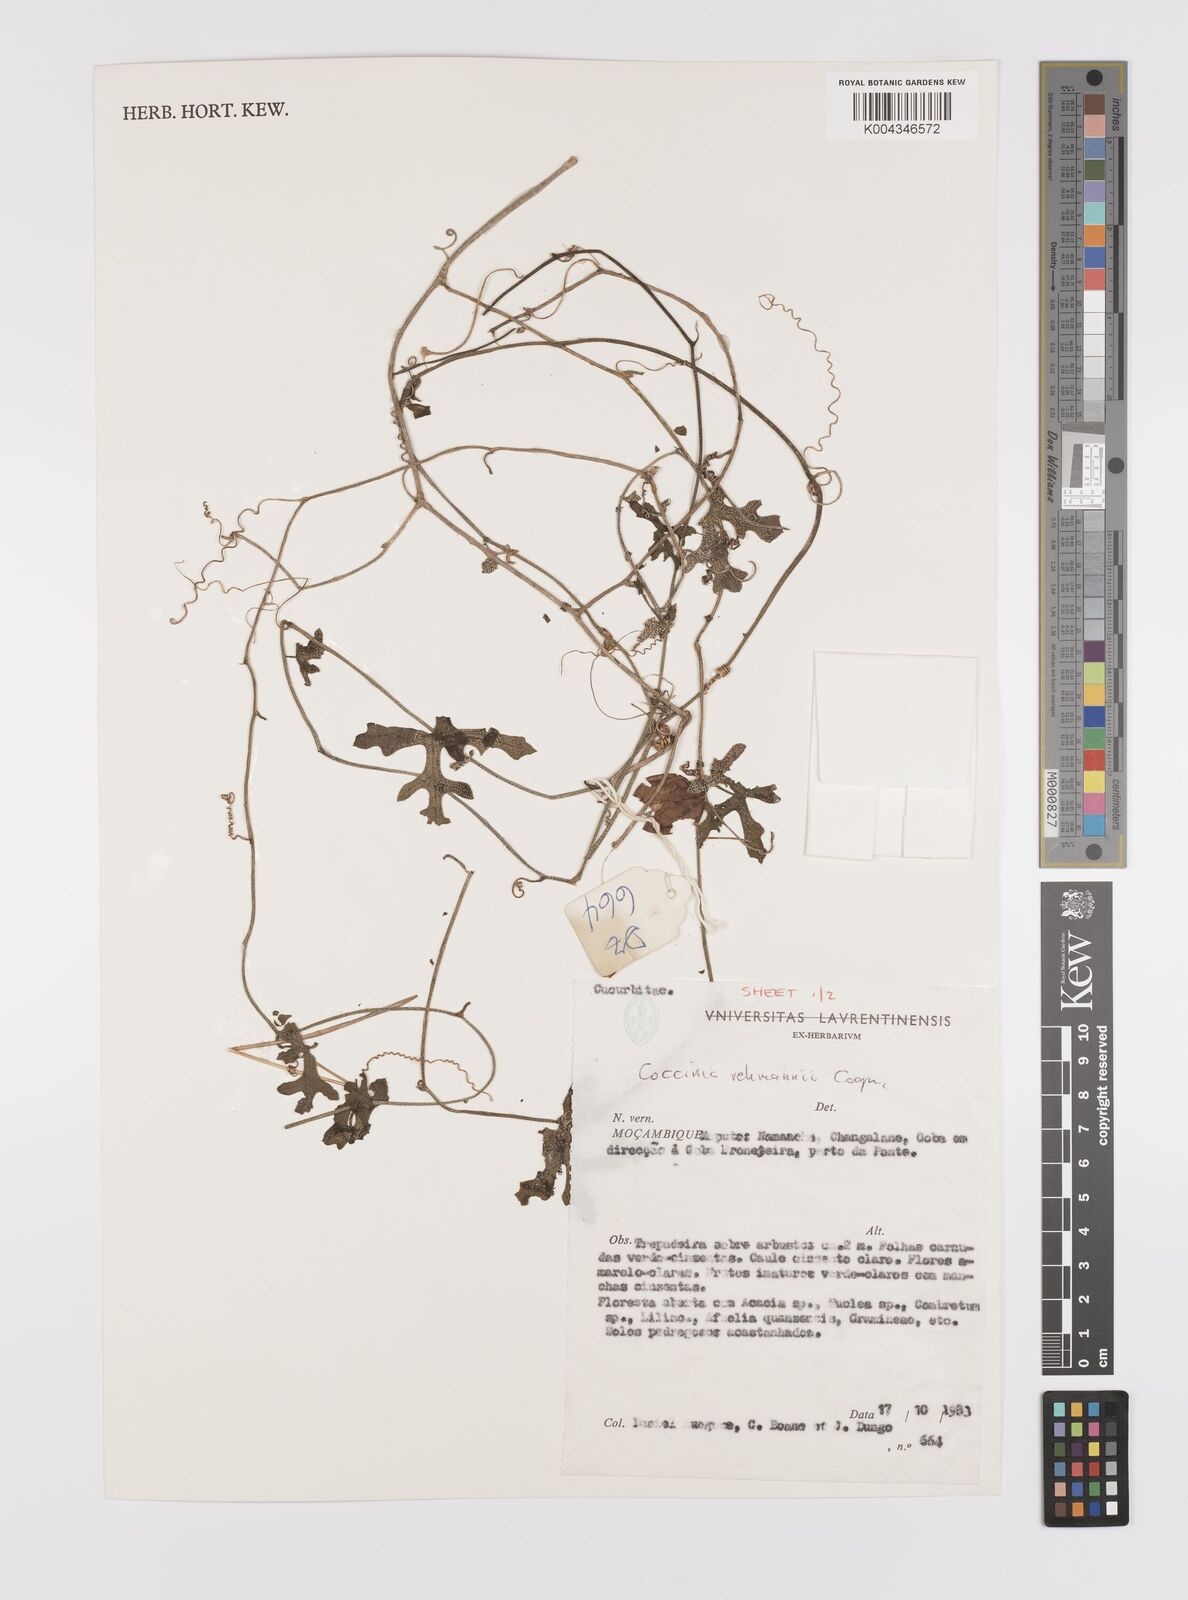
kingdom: Plantae
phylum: Tracheophyta
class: Magnoliopsida
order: Cucurbitales
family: Cucurbitaceae
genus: Coccinia
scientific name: Coccinia rehmannii
